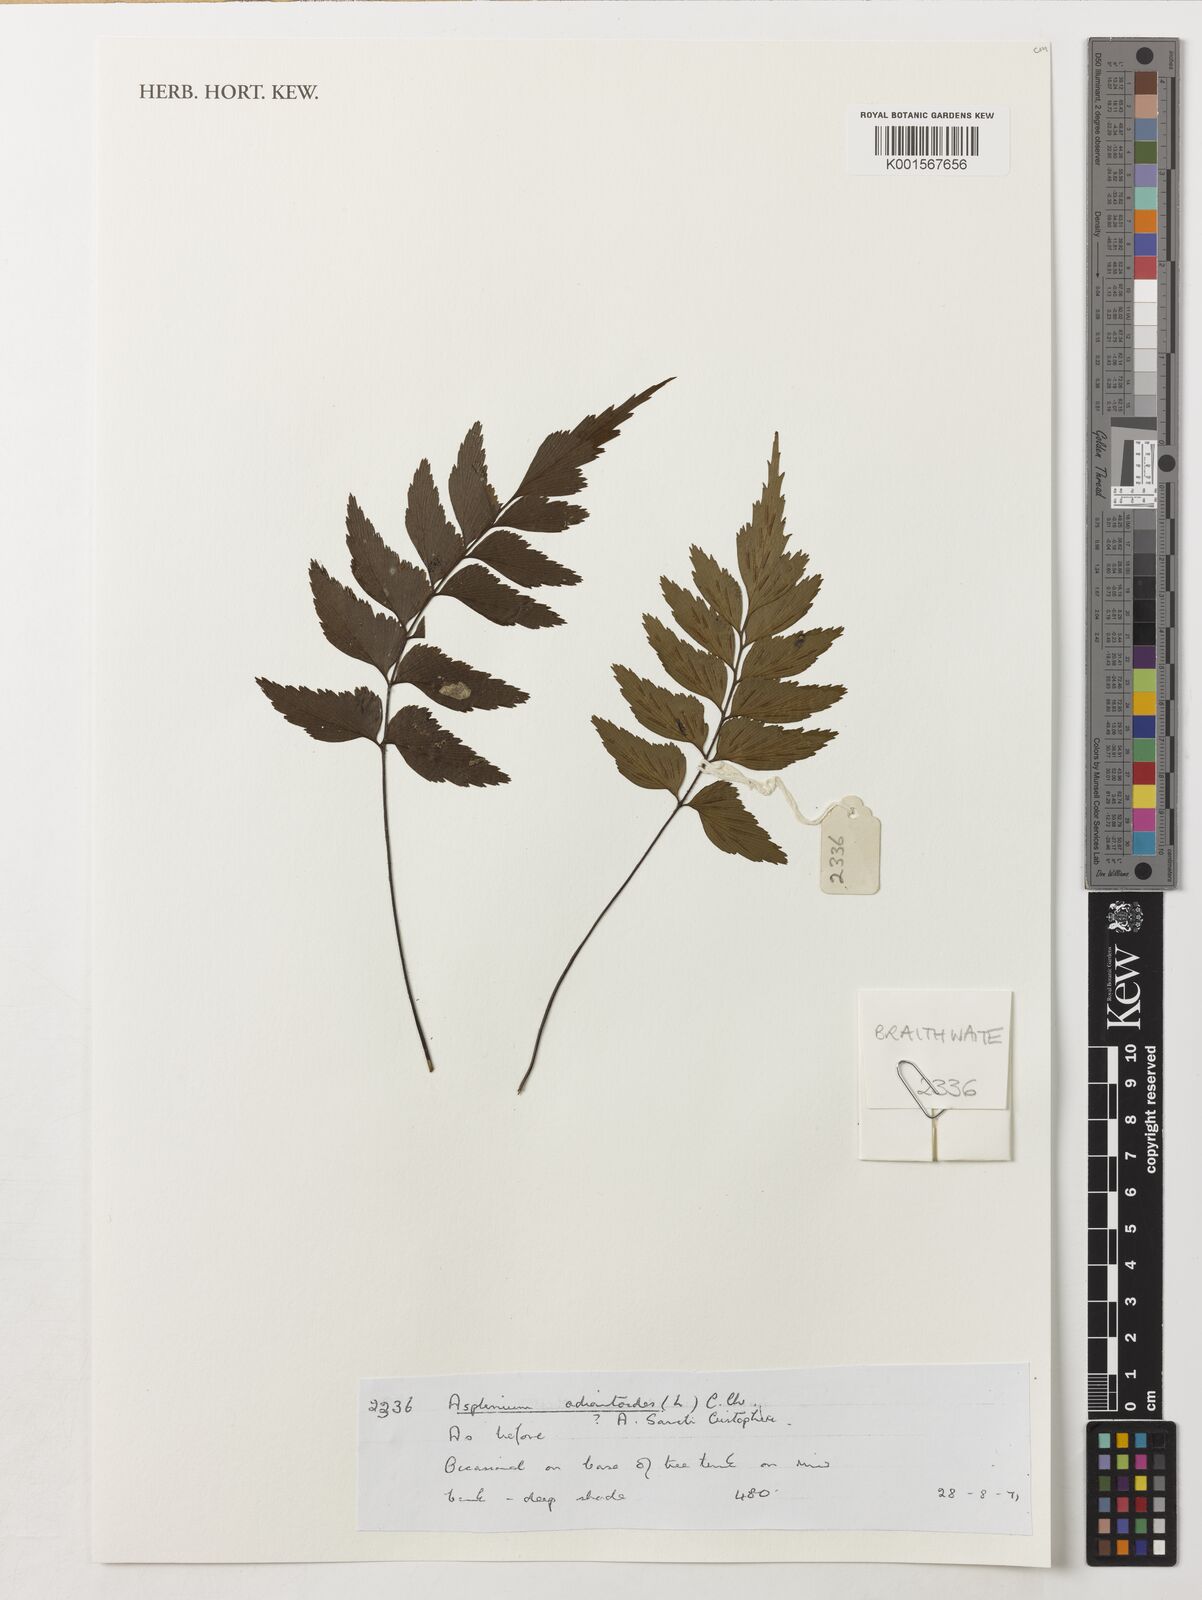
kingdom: Plantae
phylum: Tracheophyta
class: Polypodiopsida
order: Polypodiales
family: Aspleniaceae
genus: Asplenium
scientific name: Asplenium
